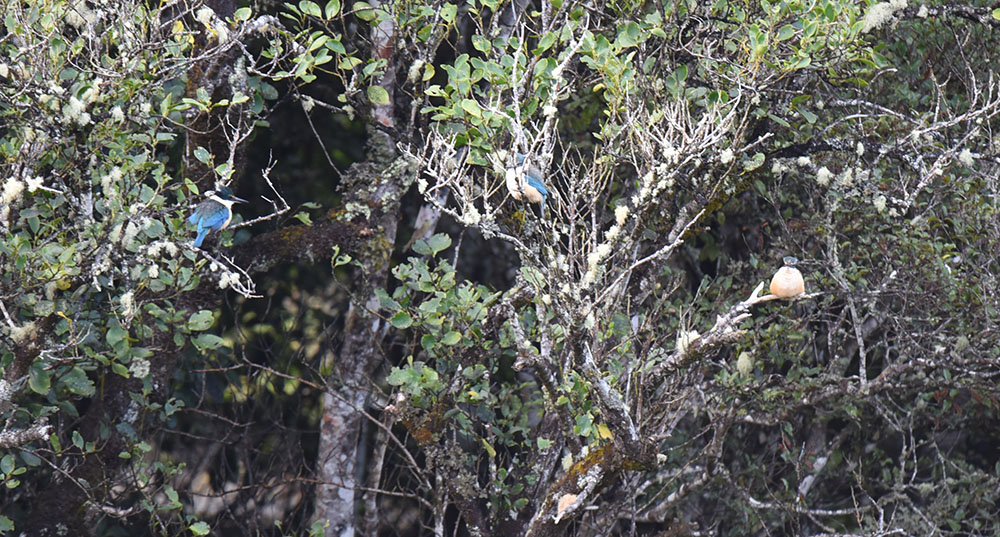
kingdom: Animalia
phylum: Chordata
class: Aves
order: Coraciiformes
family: Alcedinidae
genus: Todiramphus
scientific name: Todiramphus sanctus
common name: Sacred kingfisher
